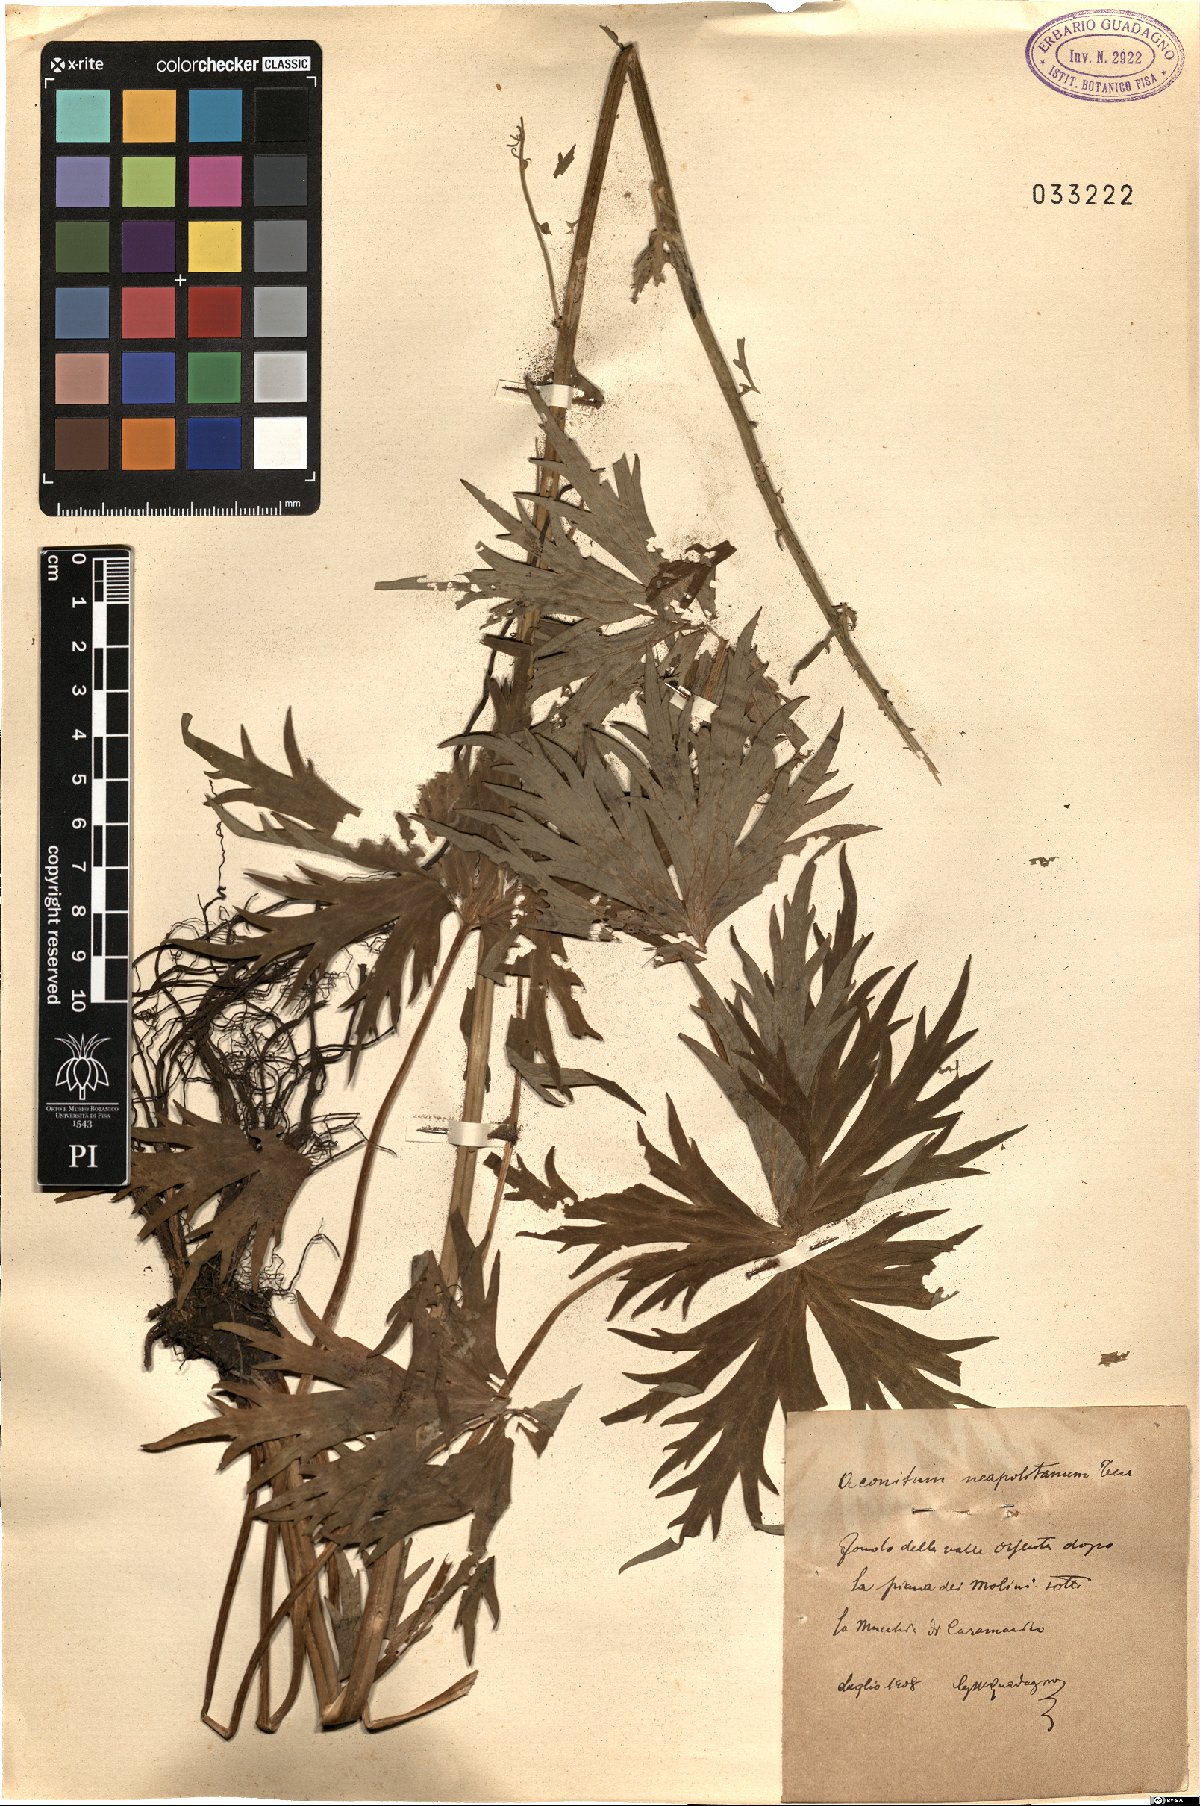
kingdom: Plantae
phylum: Tracheophyta
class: Magnoliopsida
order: Ranunculales
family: Ranunculaceae
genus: Aconitum
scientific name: Aconitum lycoctonum
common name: Wolf's-bane
